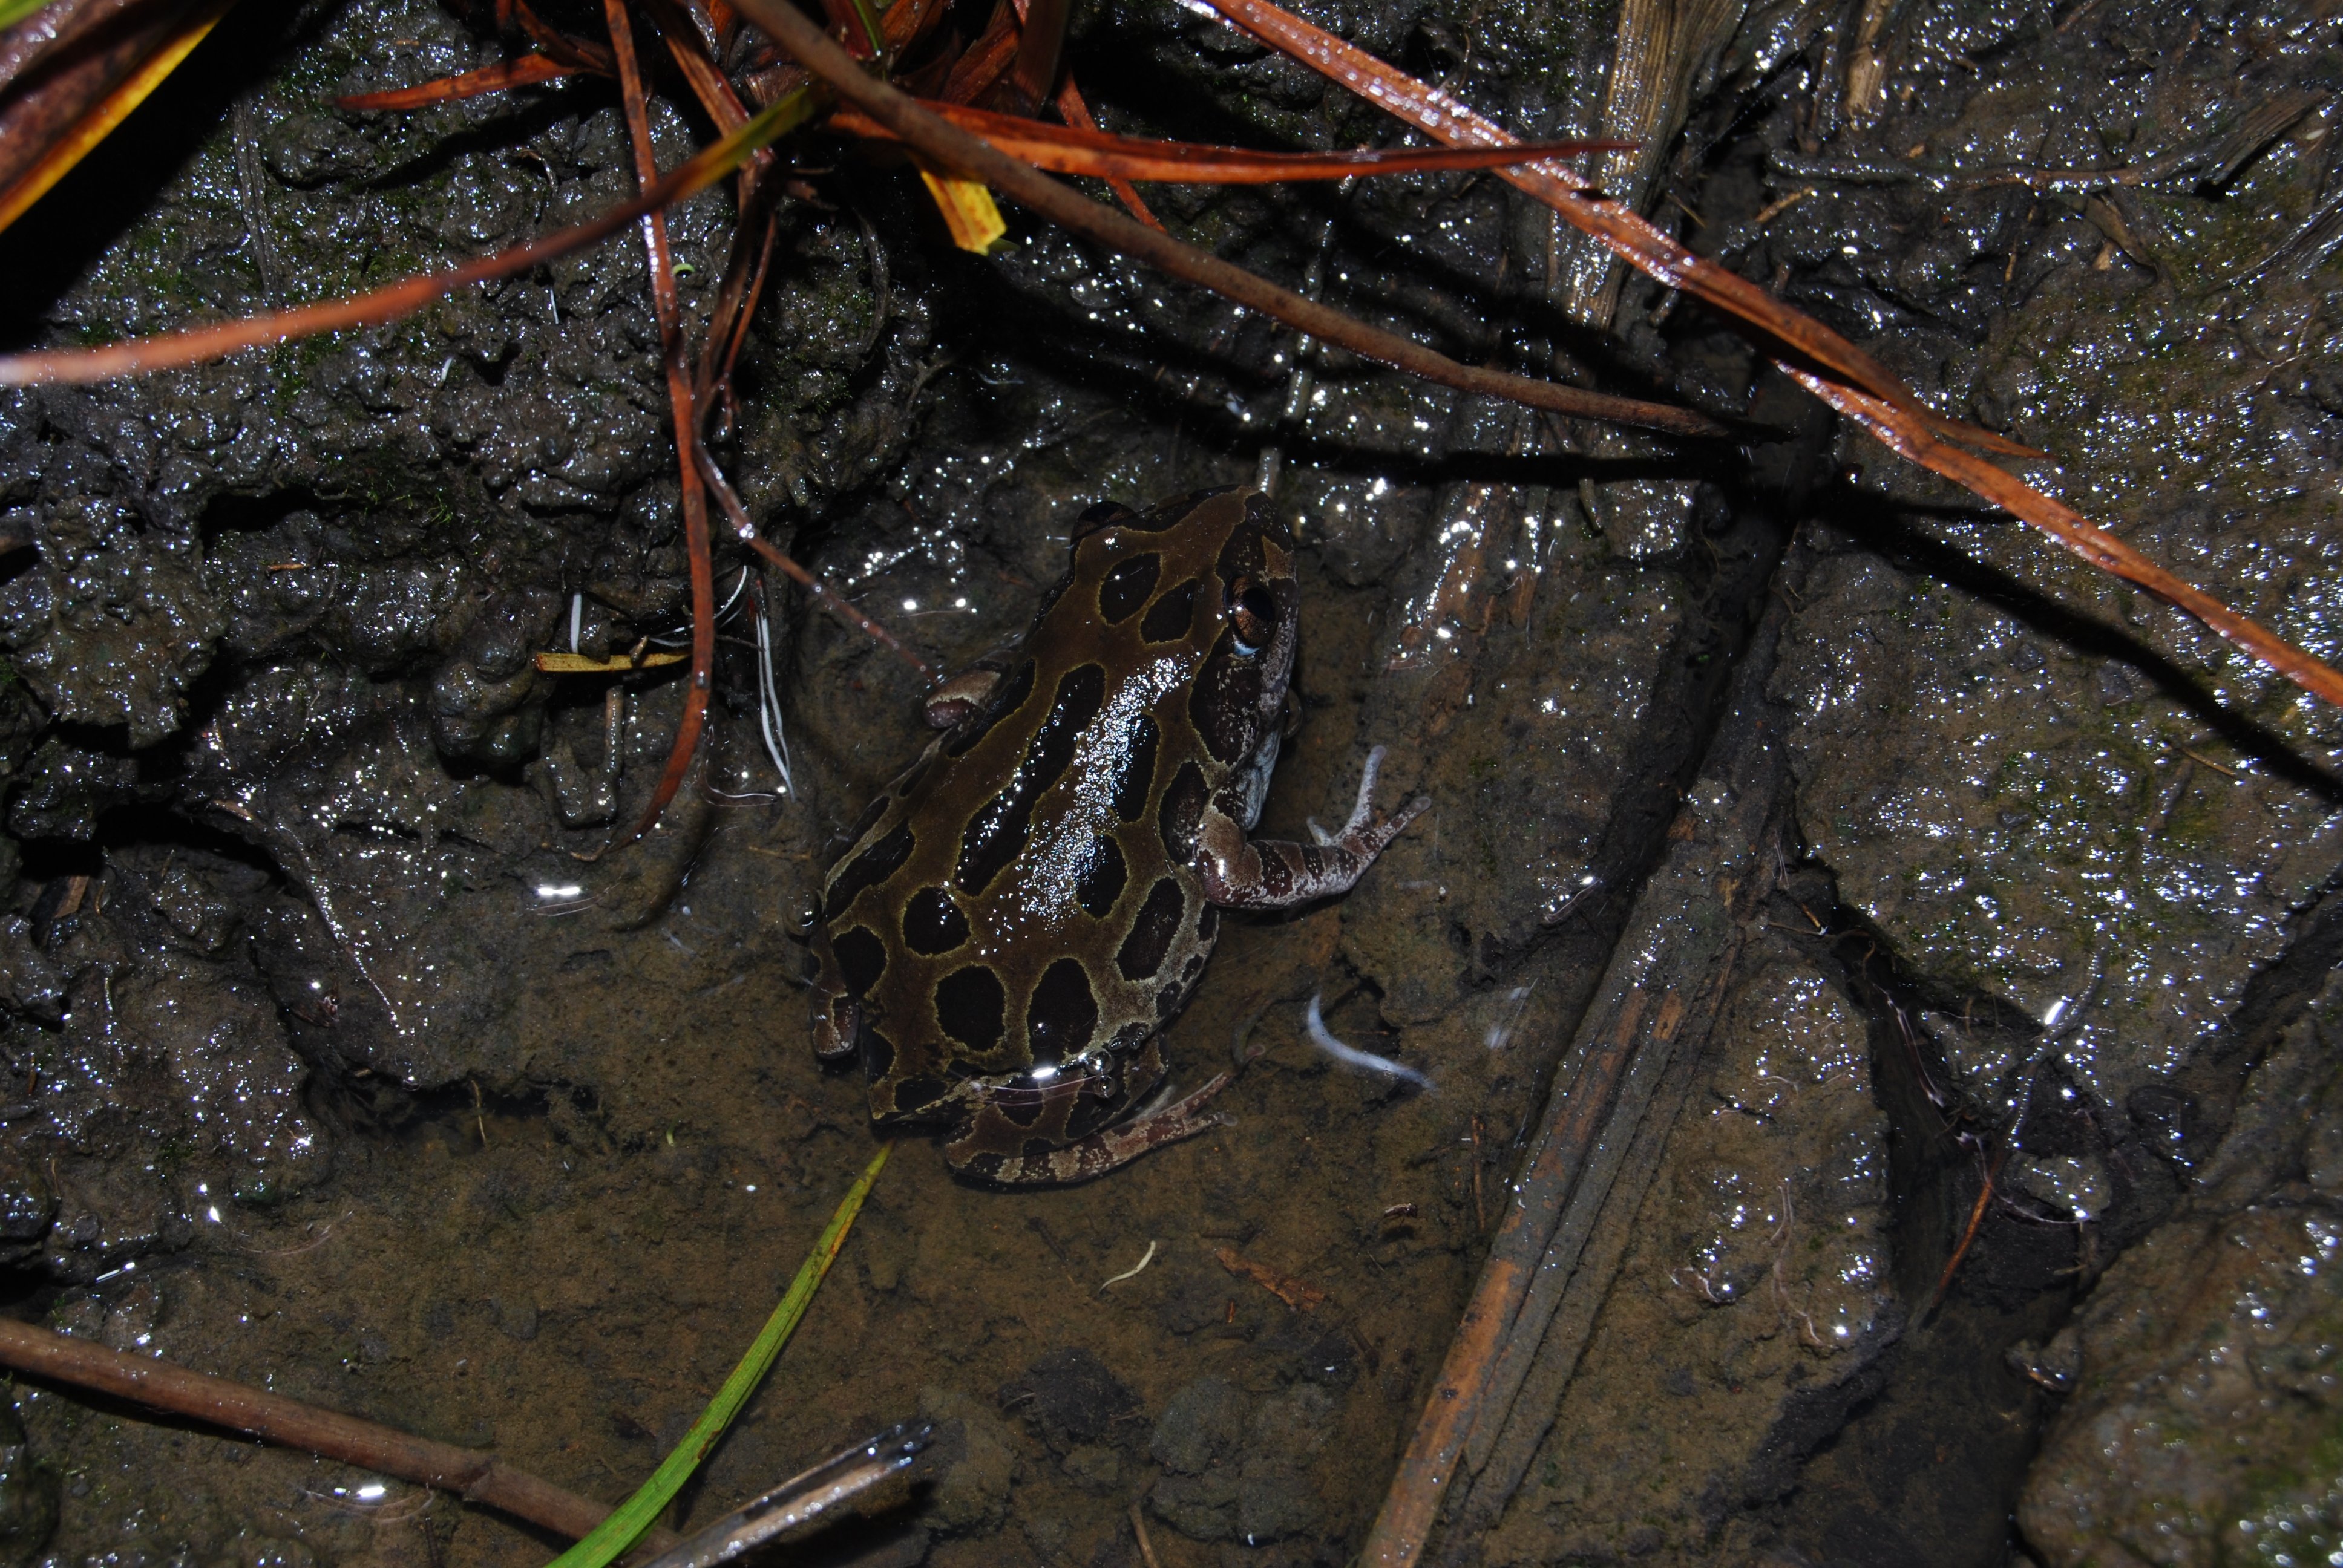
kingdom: Animalia
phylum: Chordata
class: Amphibia
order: Anura
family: Hyperoliidae
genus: Kassina
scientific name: Kassina senegalensis
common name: Senegal land frog
